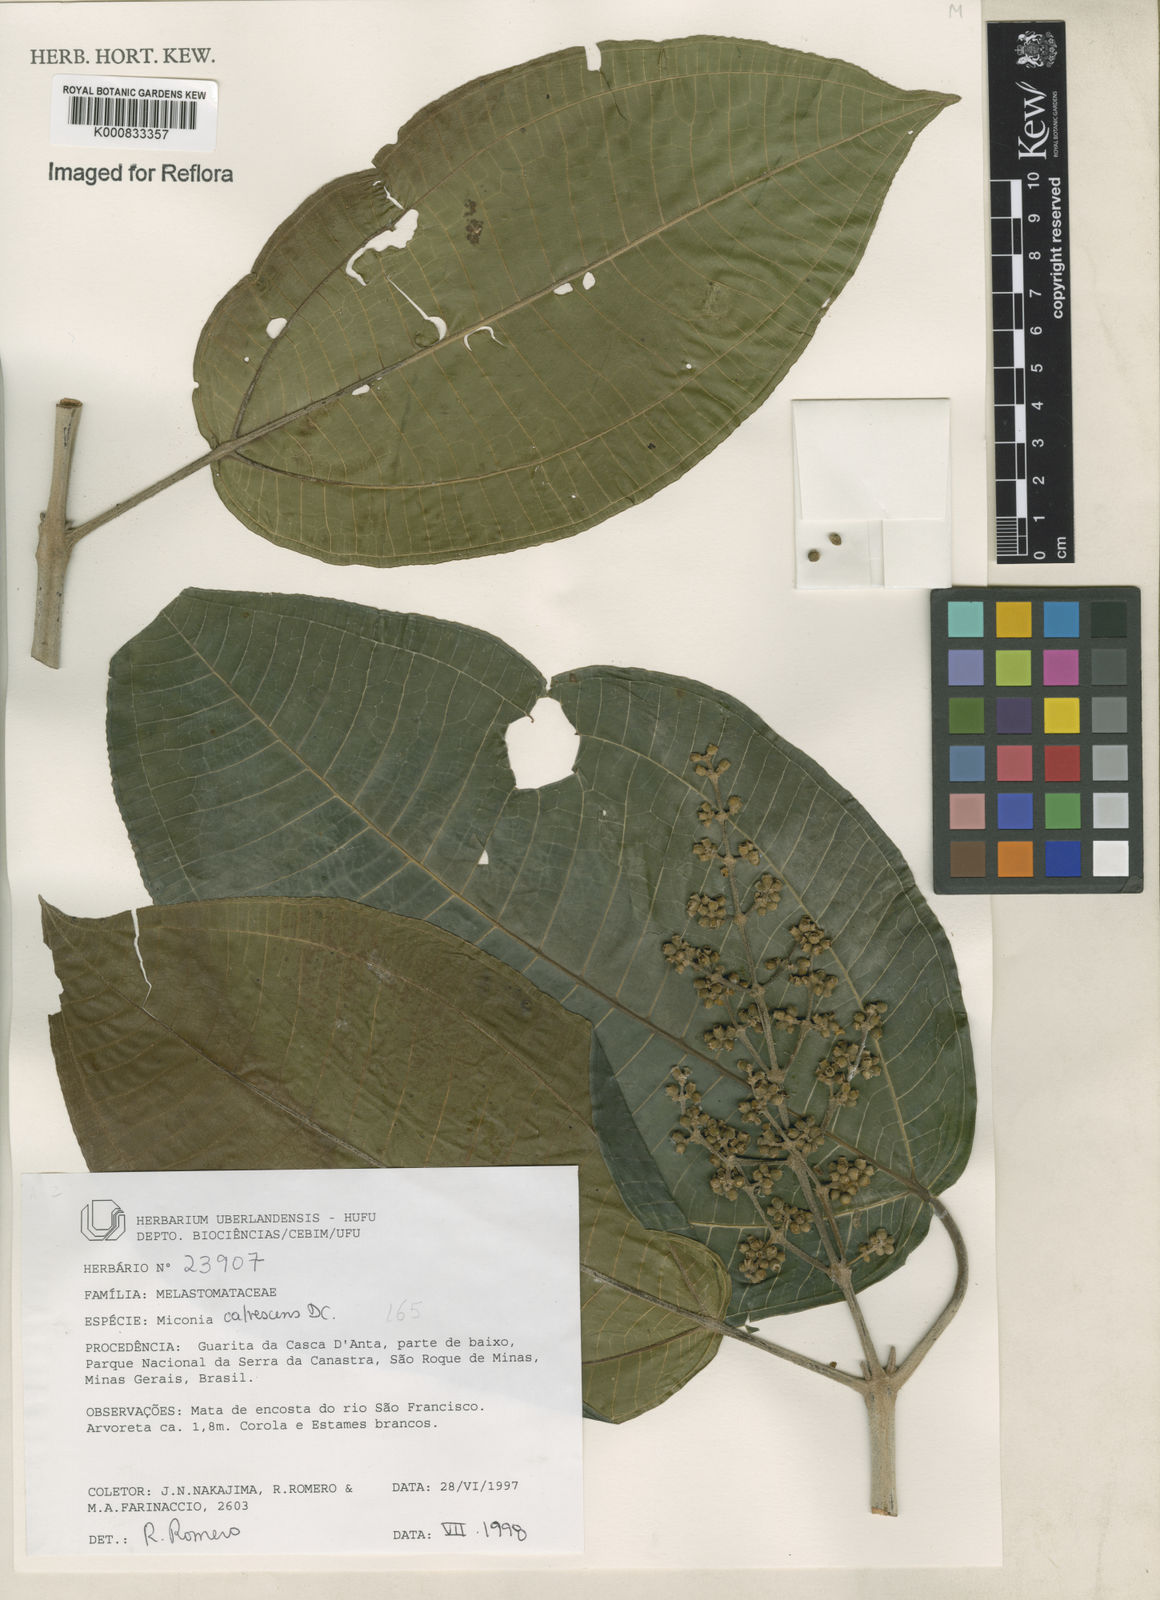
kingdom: Plantae
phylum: Tracheophyta
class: Magnoliopsida
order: Myrtales
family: Melastomataceae
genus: Miconia
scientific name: Miconia calvescens
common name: Purple plague
